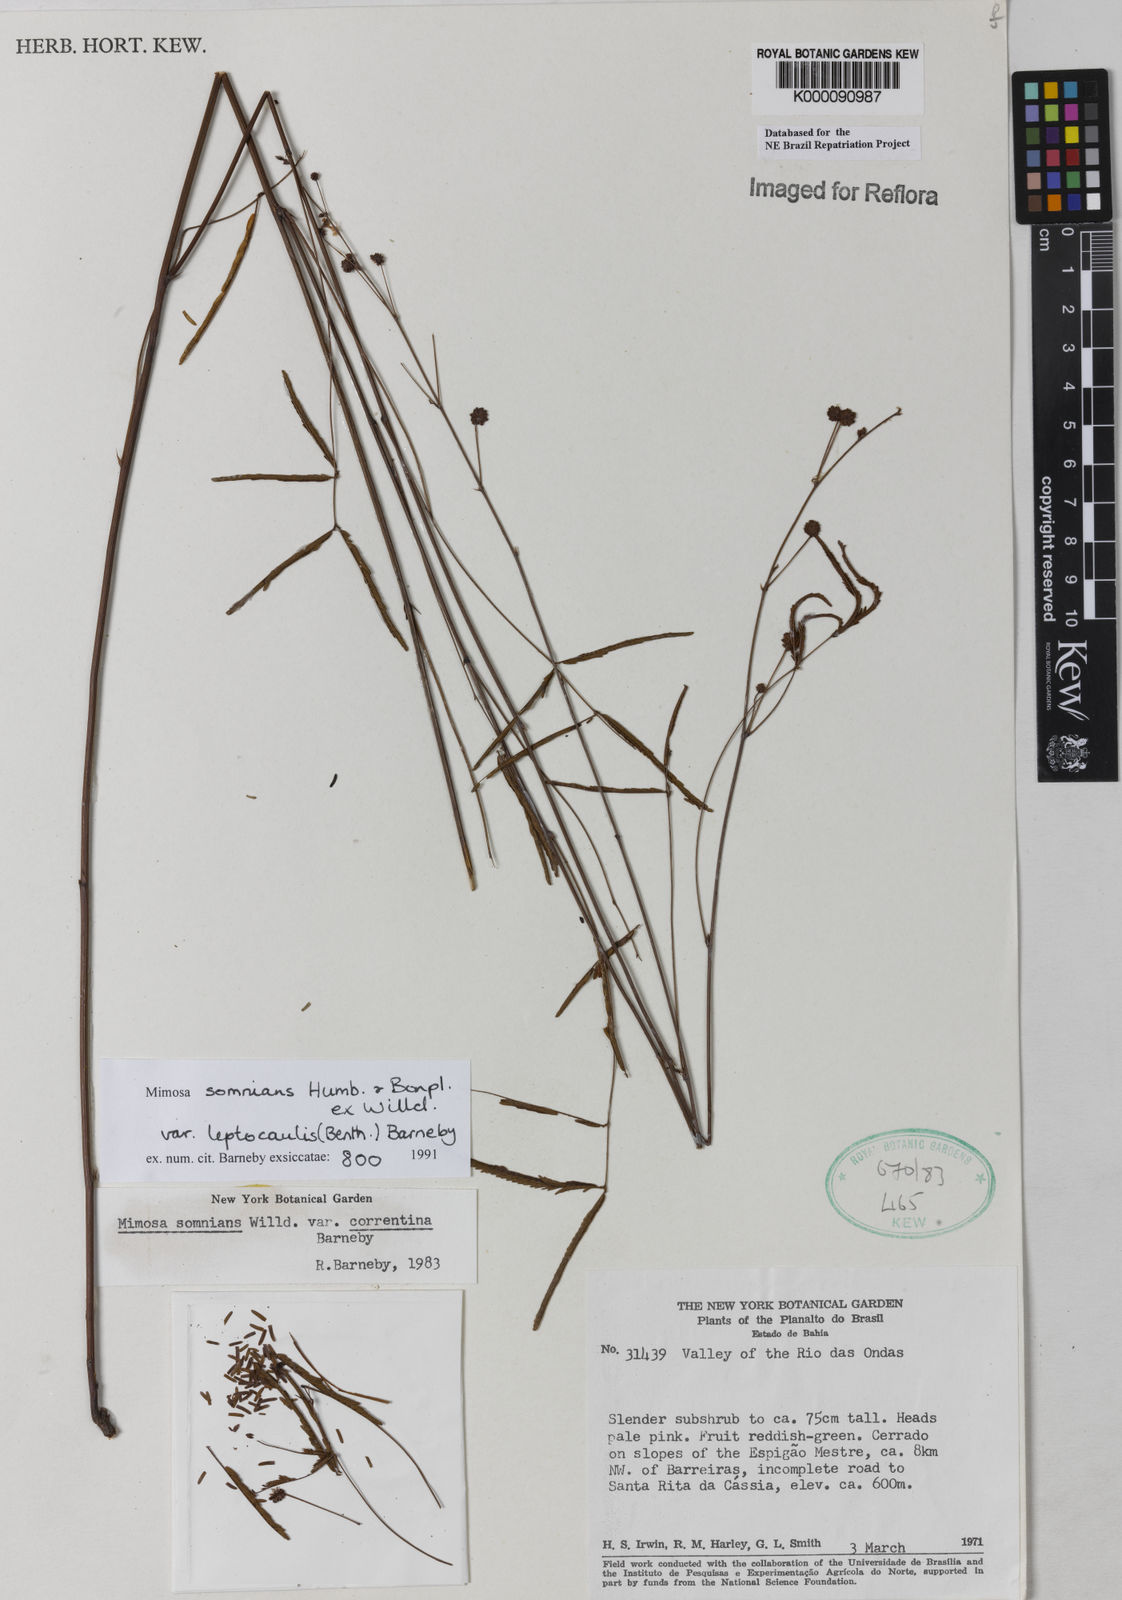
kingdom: Plantae
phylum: Tracheophyta
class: Magnoliopsida
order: Fabales
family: Fabaceae
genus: Mimosa
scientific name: Mimosa somnians
